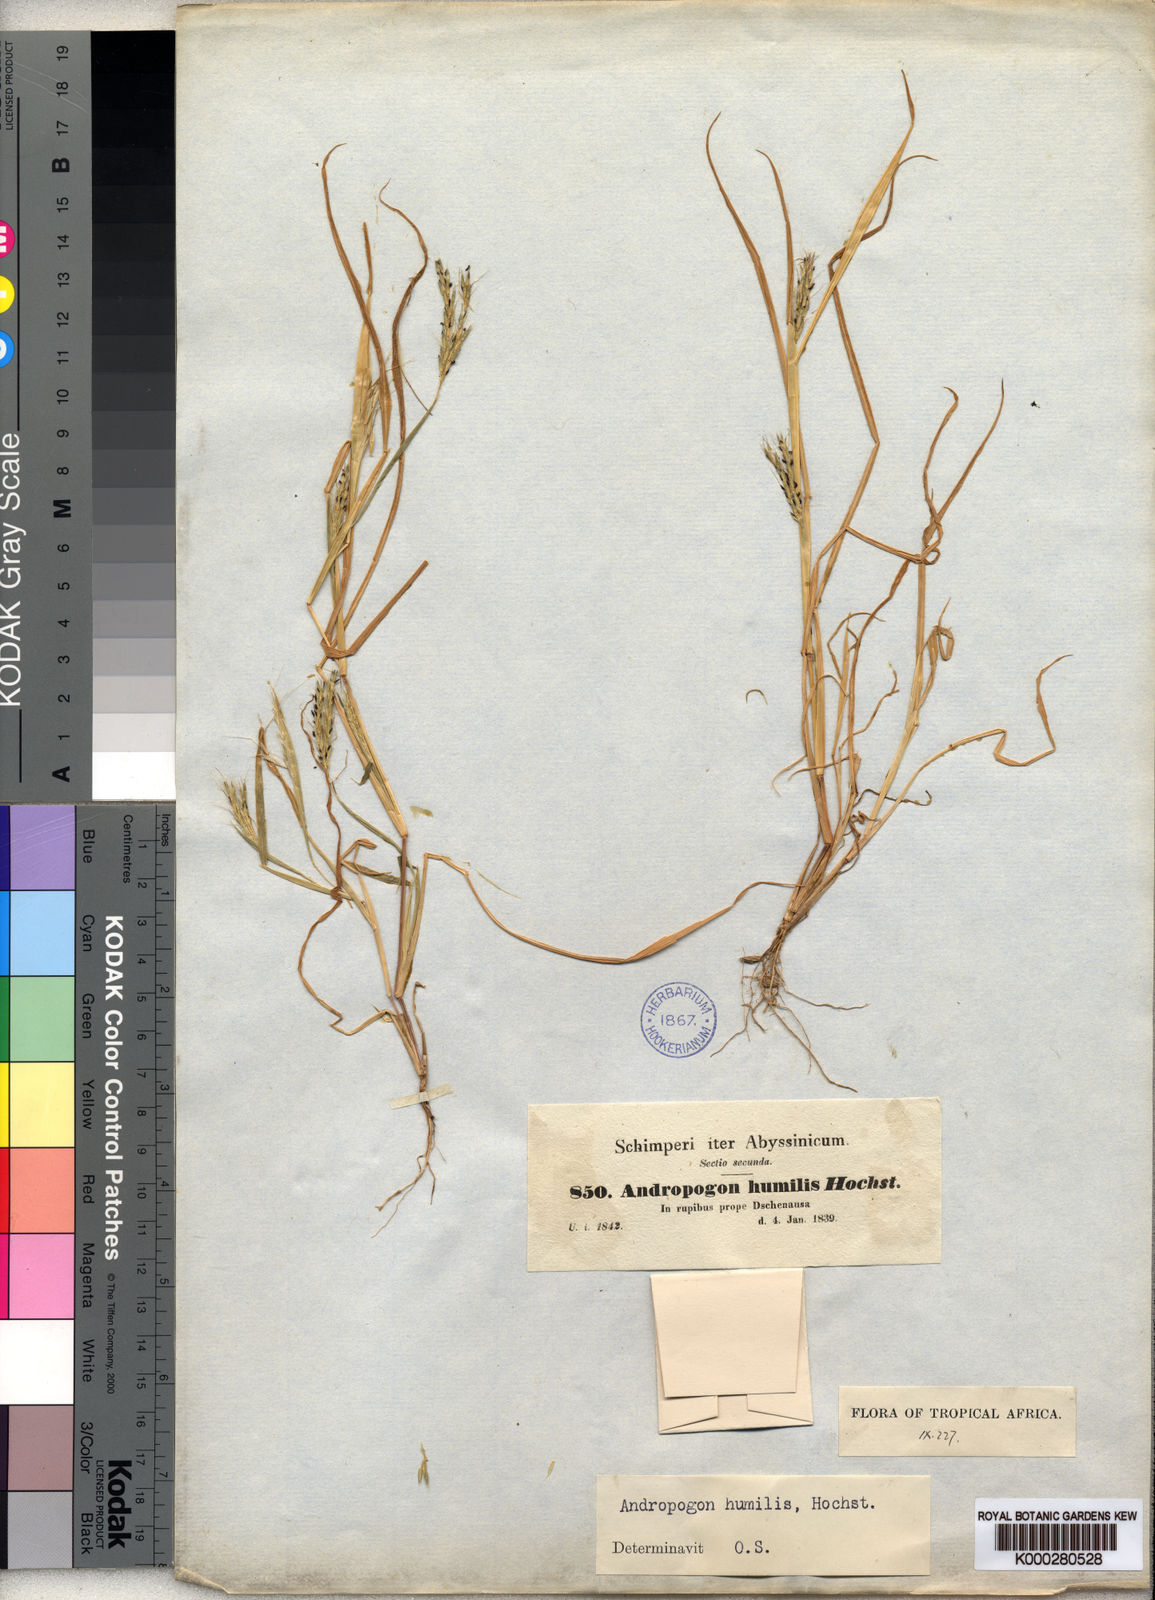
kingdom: Plantae
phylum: Tracheophyta
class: Liliopsida
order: Poales
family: Poaceae
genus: Andropogon
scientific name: Andropogon amethystinus
